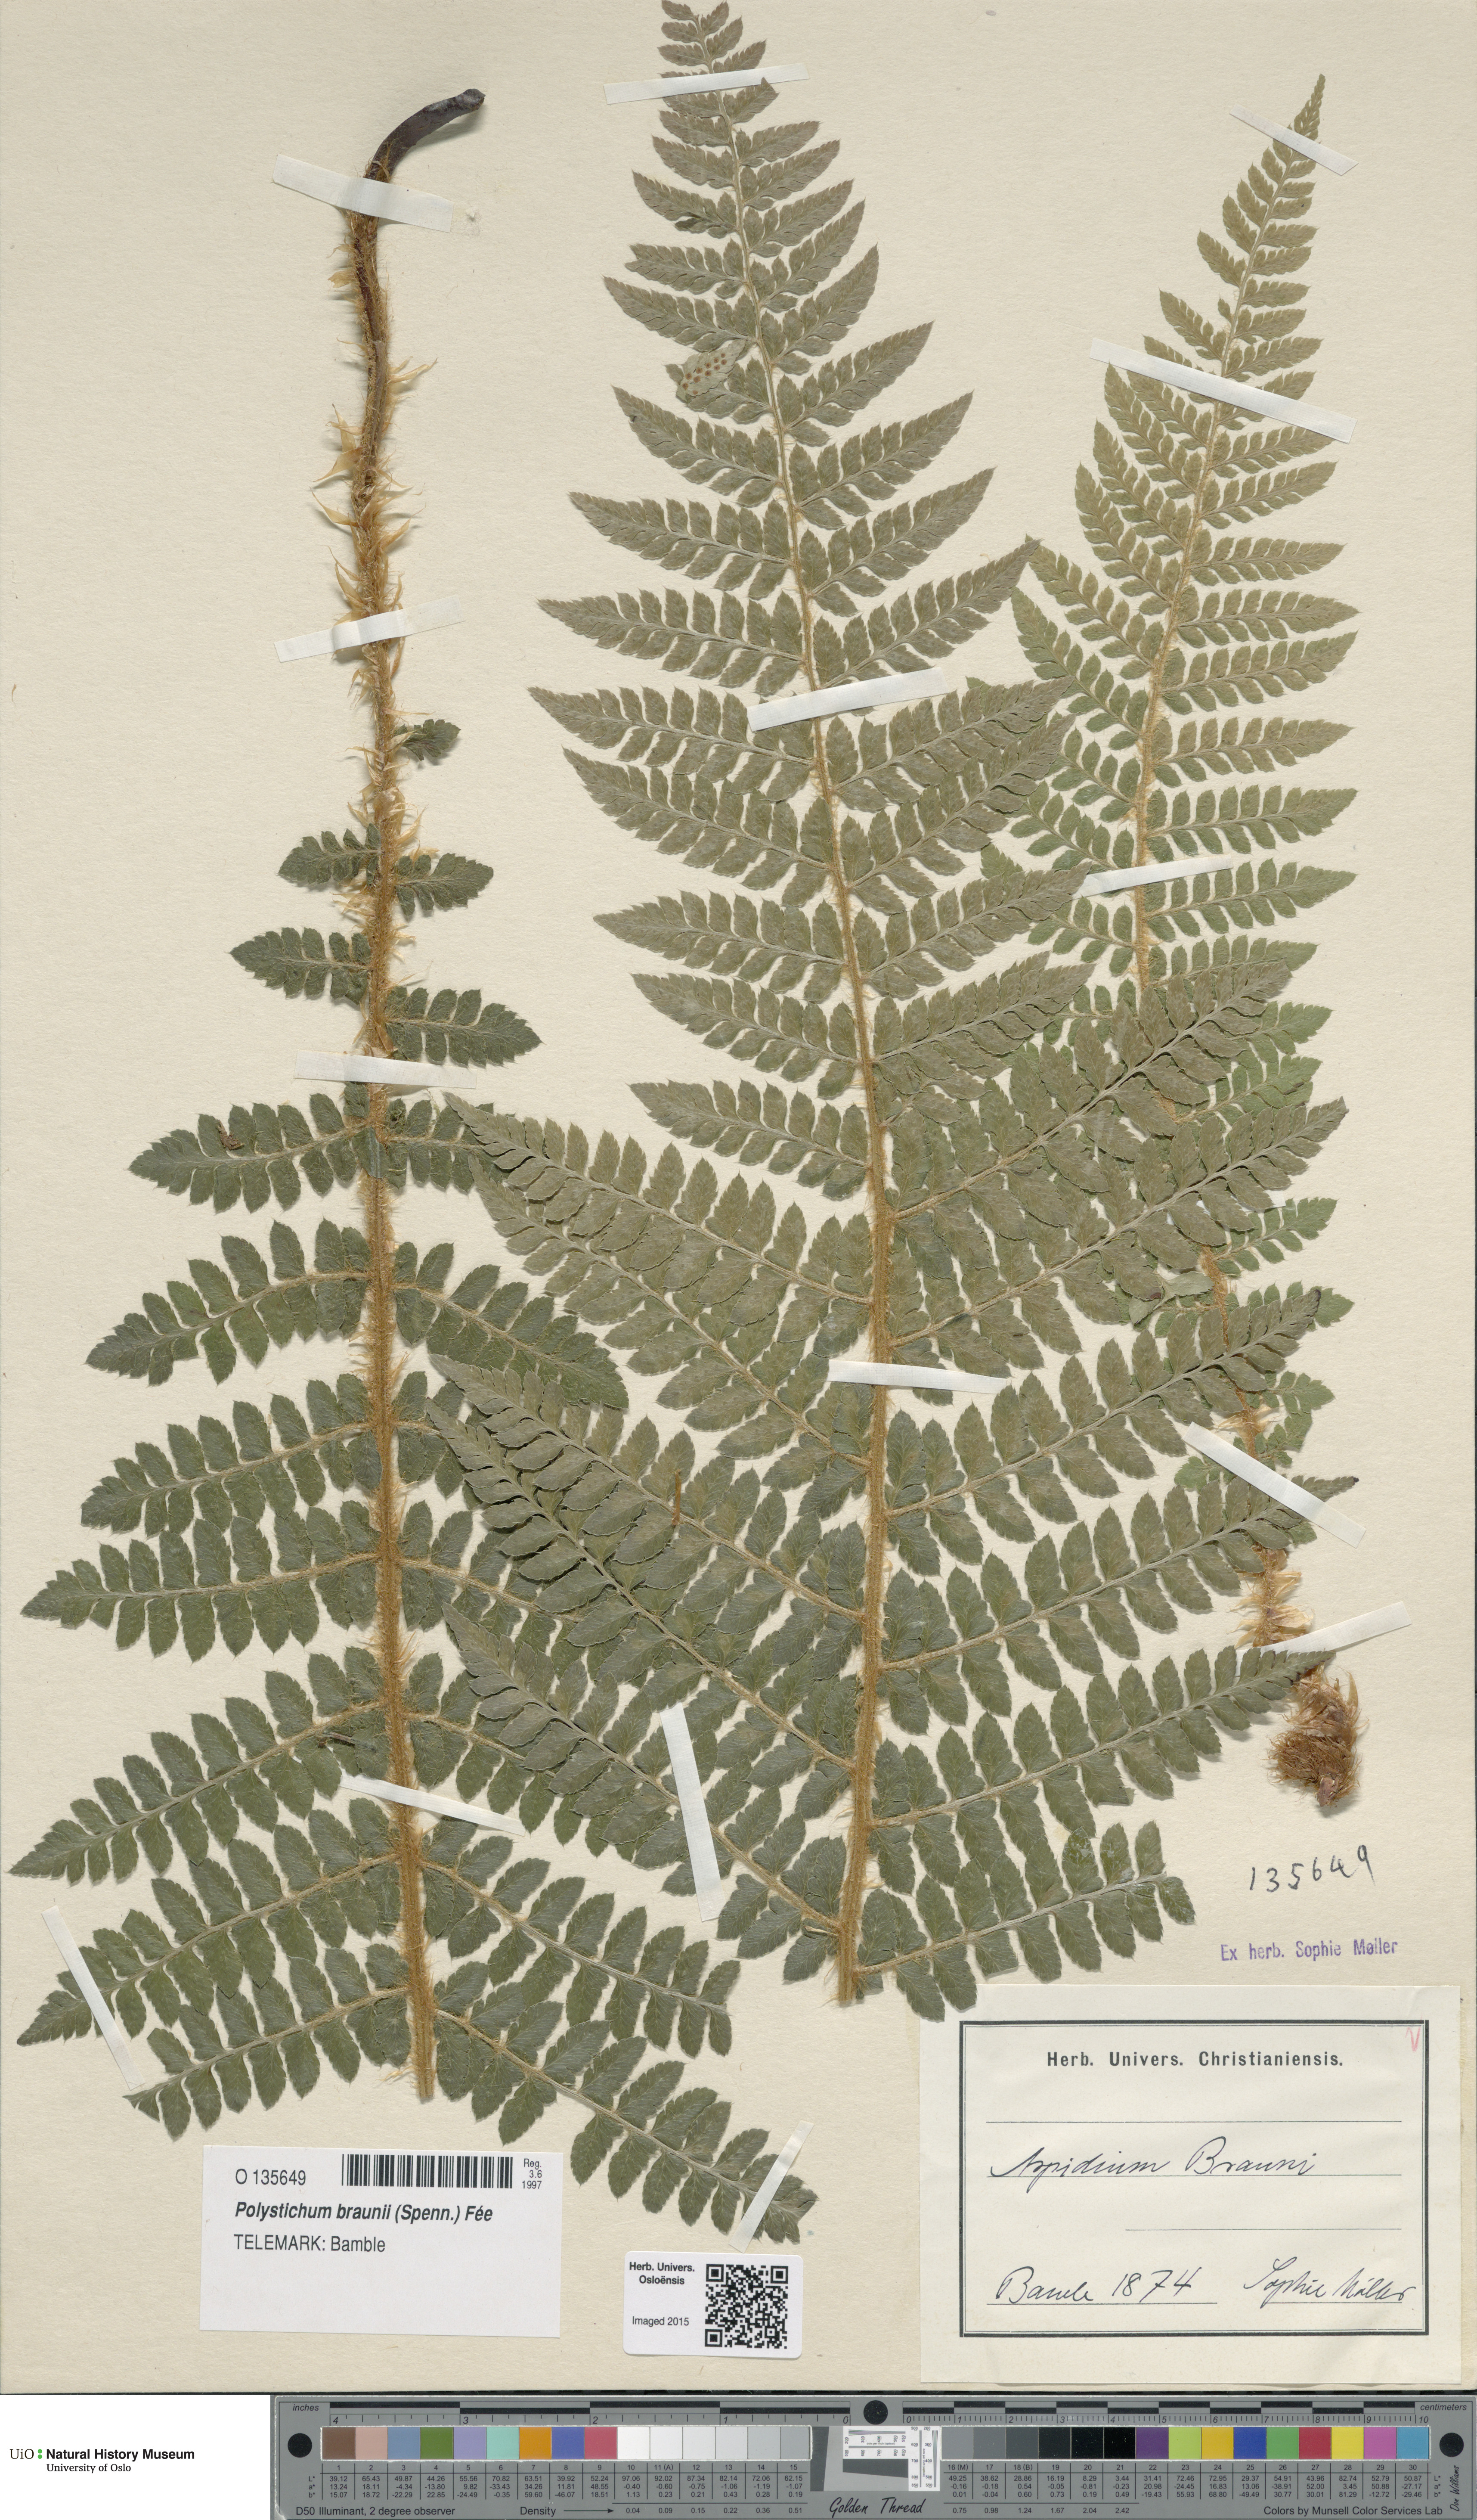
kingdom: Plantae
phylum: Tracheophyta
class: Polypodiopsida
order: Polypodiales
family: Dryopteridaceae
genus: Polystichum
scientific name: Polystichum braunii
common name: Braun's holly fern
